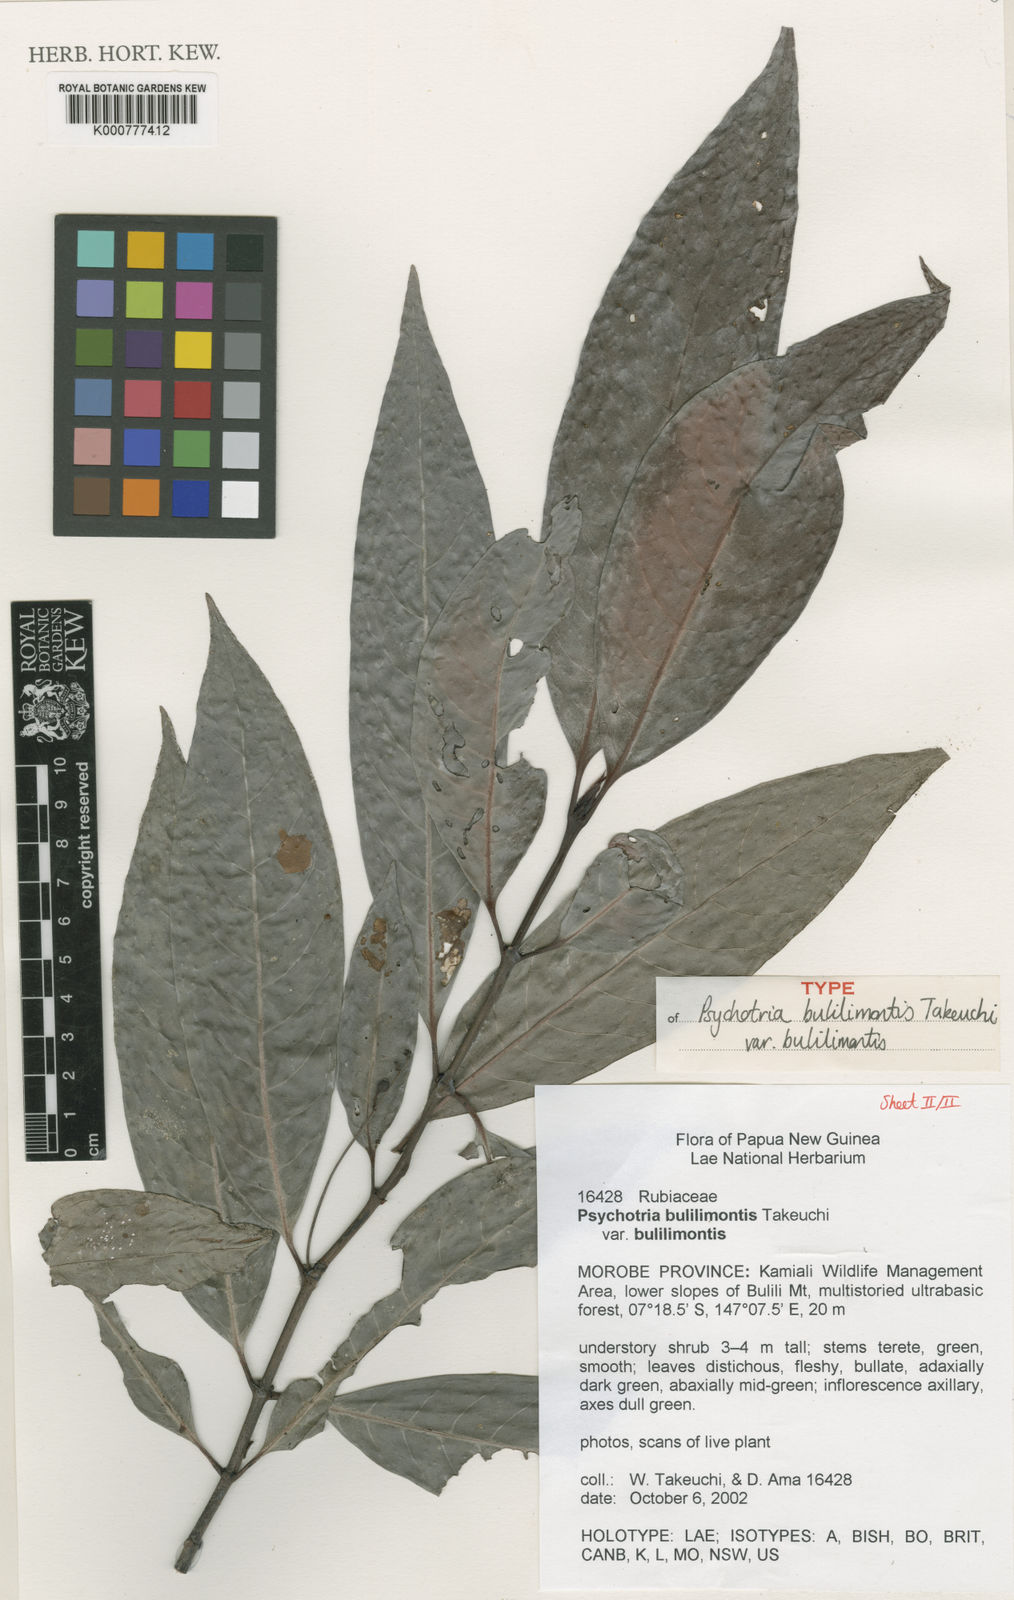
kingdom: Plantae
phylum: Tracheophyta
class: Magnoliopsida
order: Gentianales
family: Rubiaceae
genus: Psychotria
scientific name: Psychotria bulilimontis
